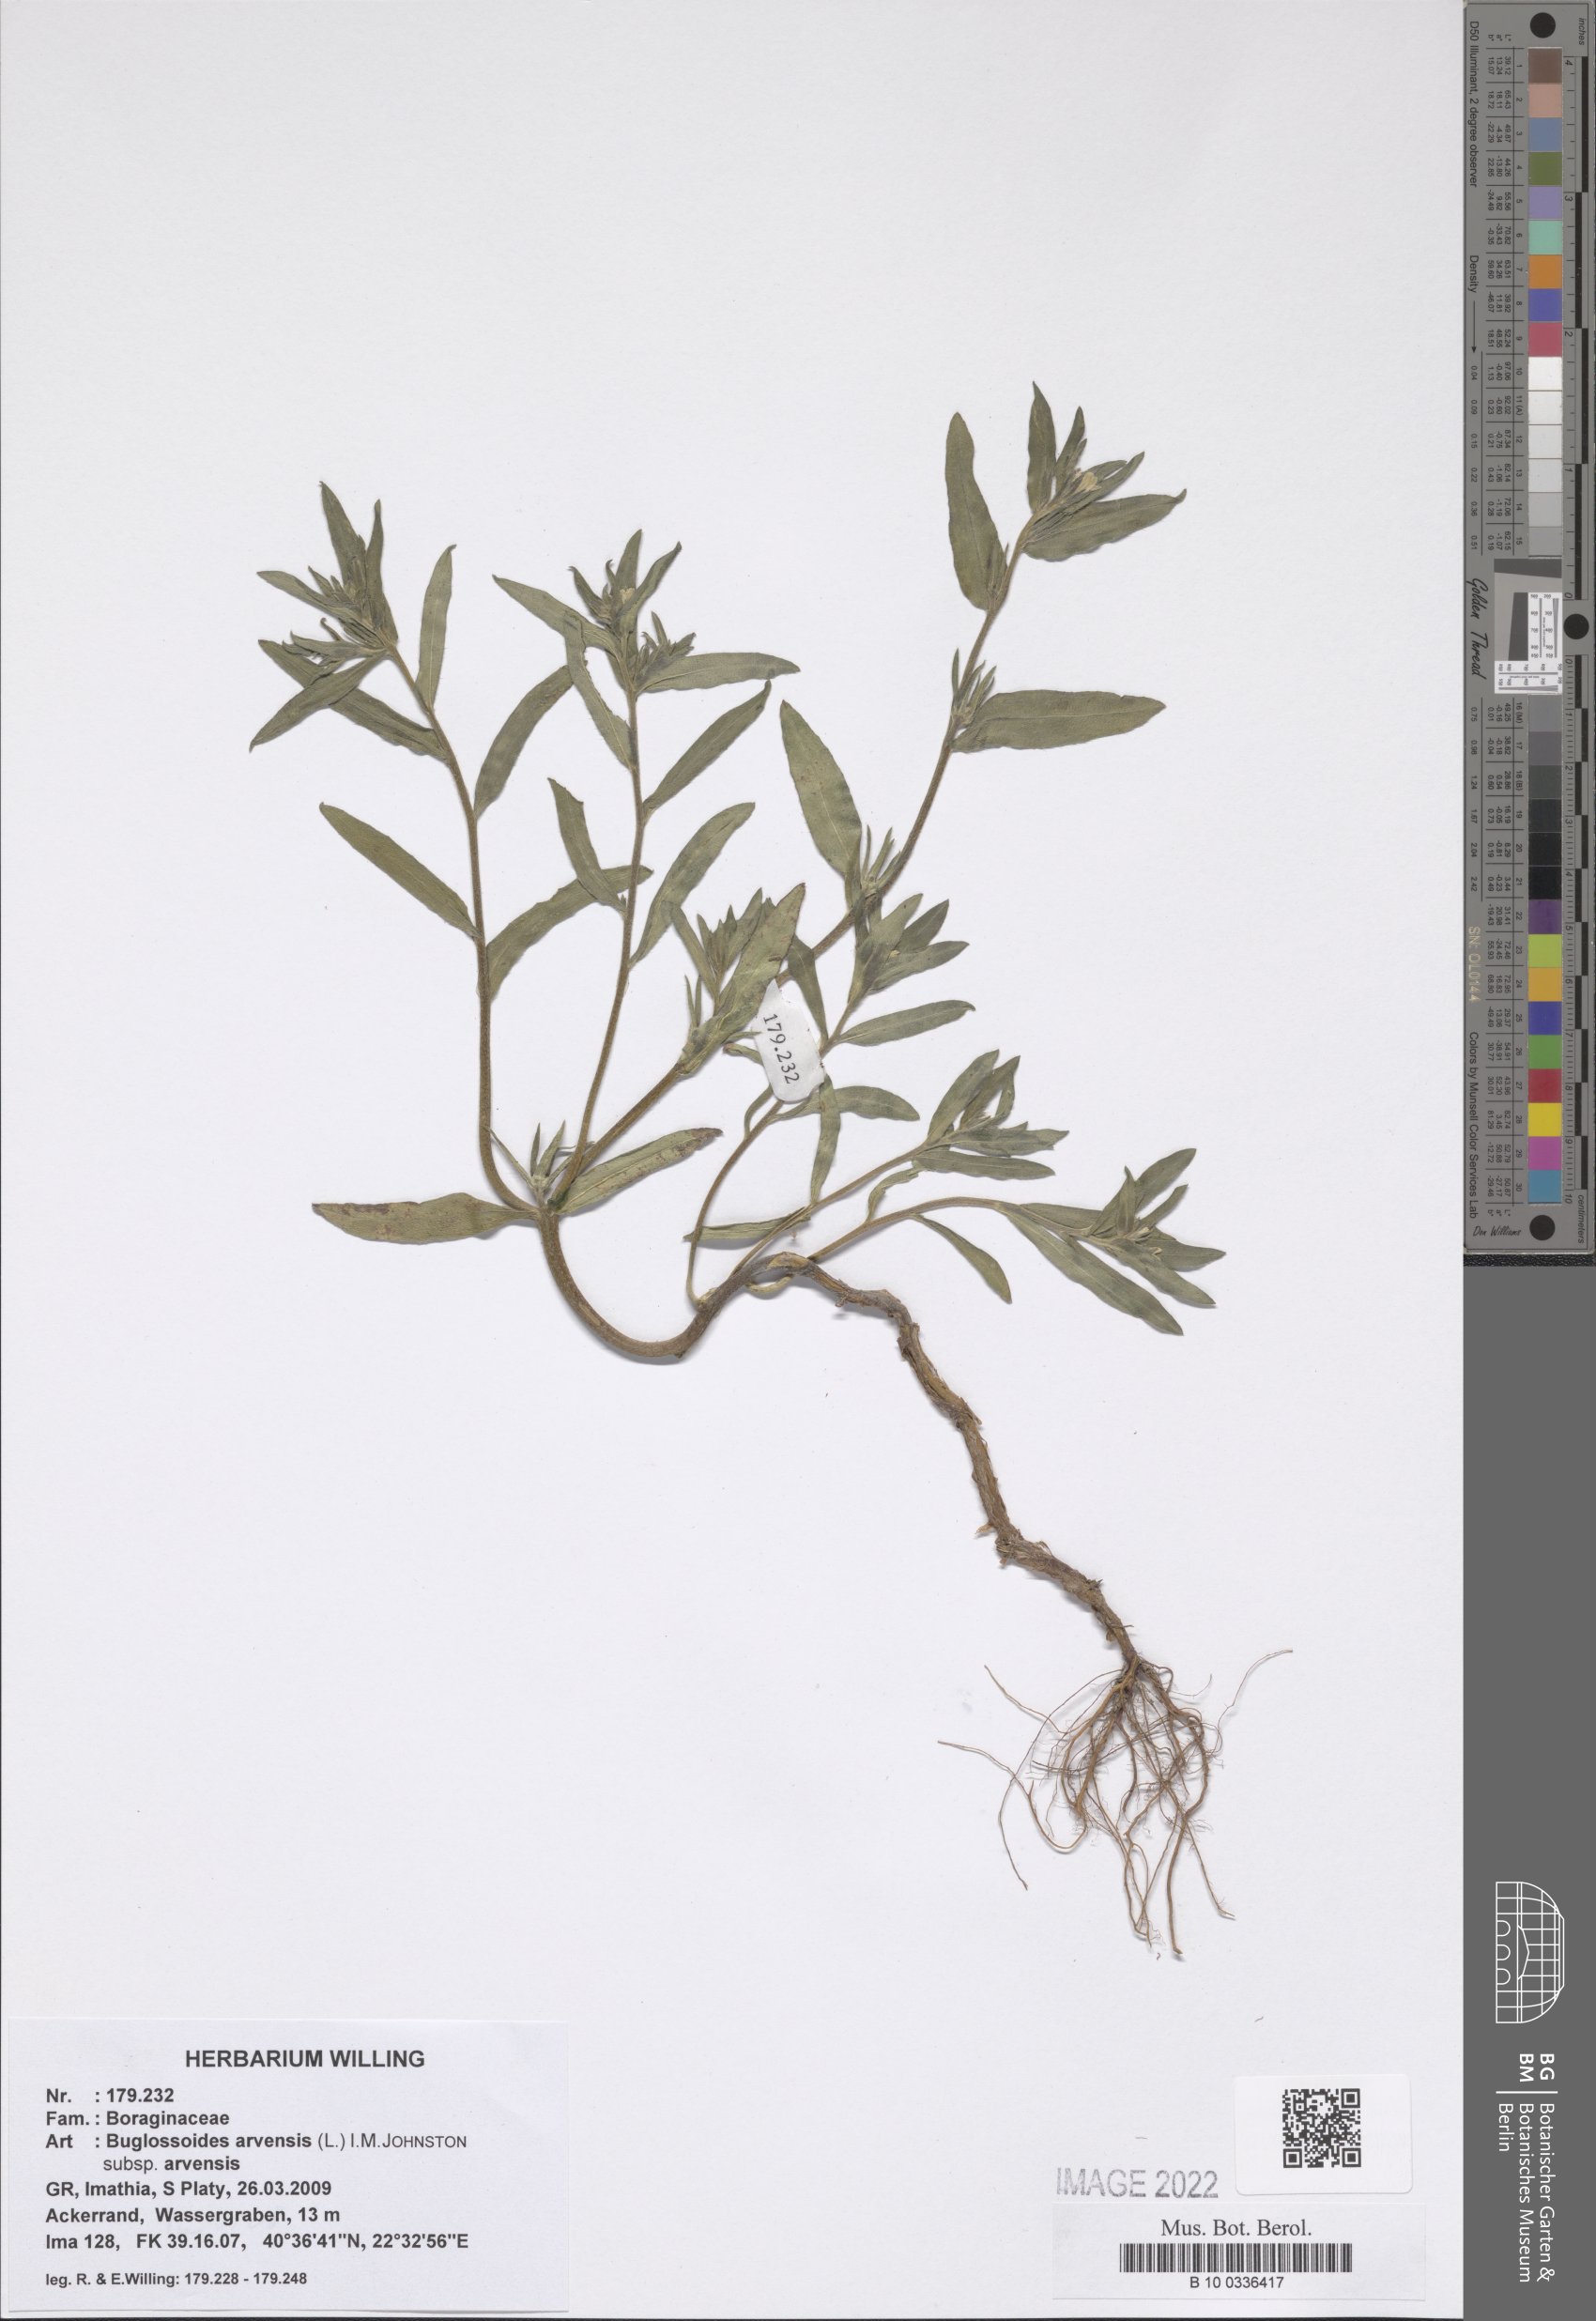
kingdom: Plantae
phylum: Tracheophyta
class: Magnoliopsida
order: Boraginales
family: Boraginaceae
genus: Buglossoides
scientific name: Buglossoides arvensis
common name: Corn gromwell
